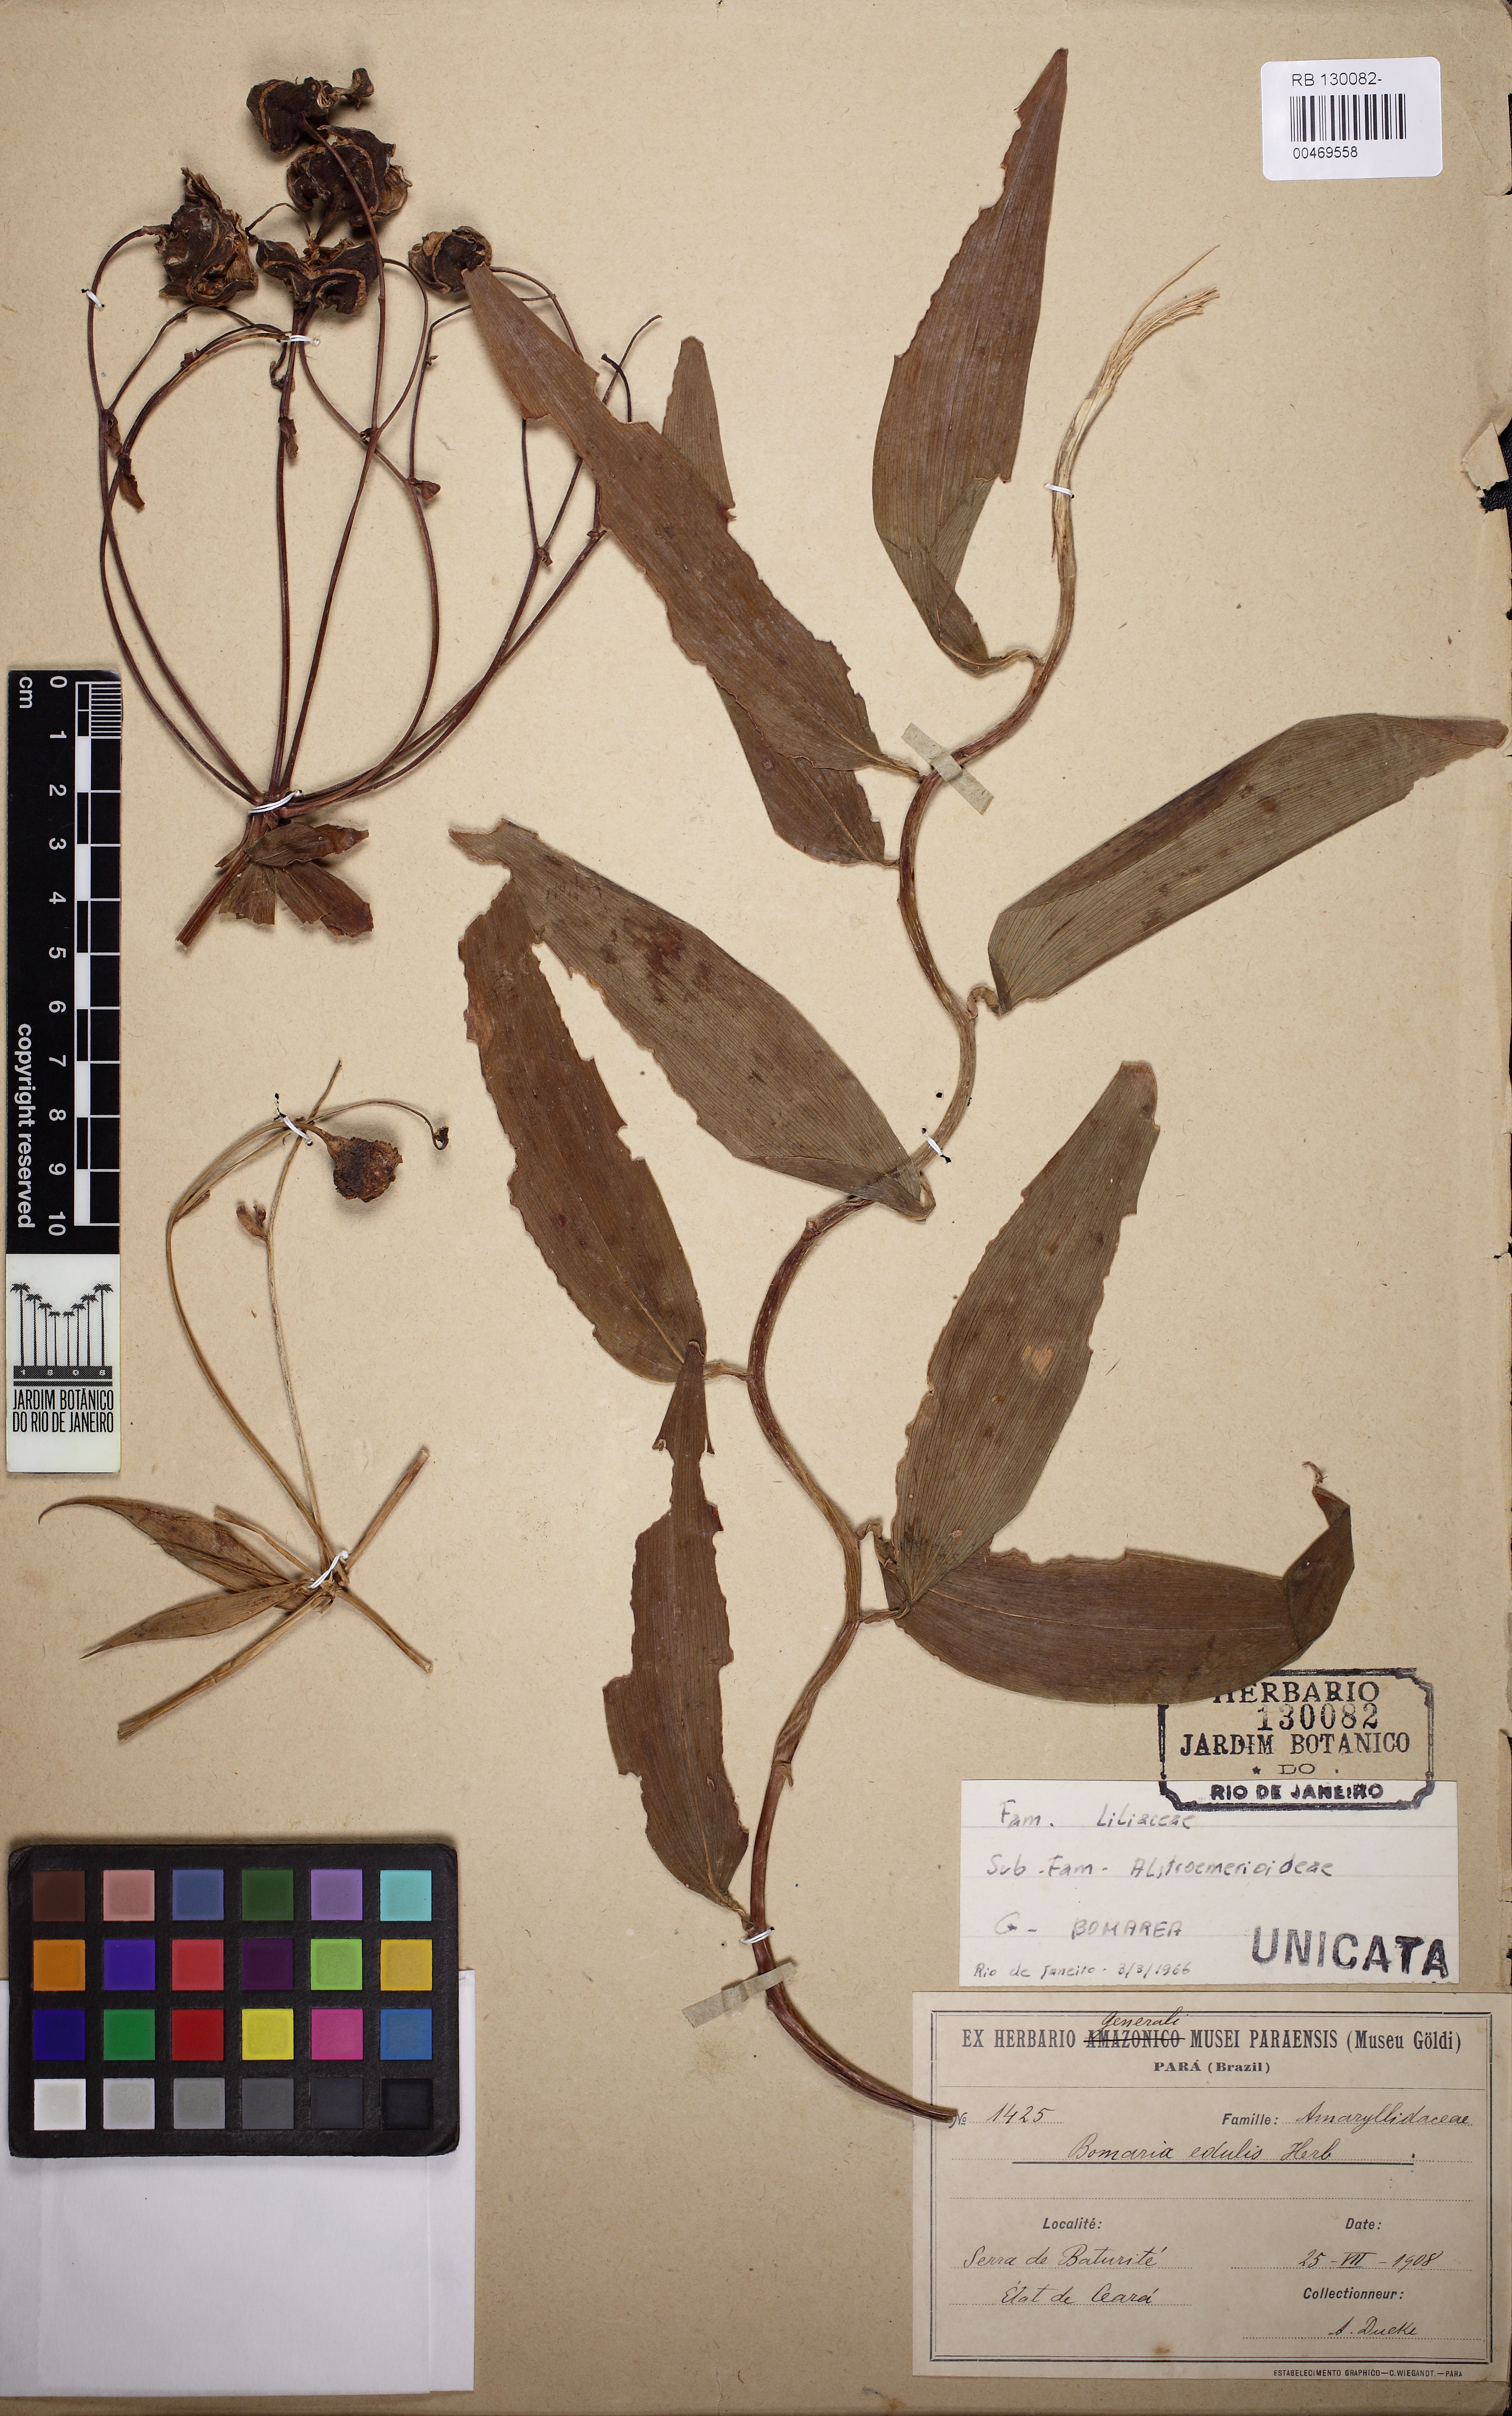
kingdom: Plantae
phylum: Tracheophyta
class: Liliopsida
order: Liliales
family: Alstroemeriaceae
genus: Bomarea
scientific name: Bomarea edulis
